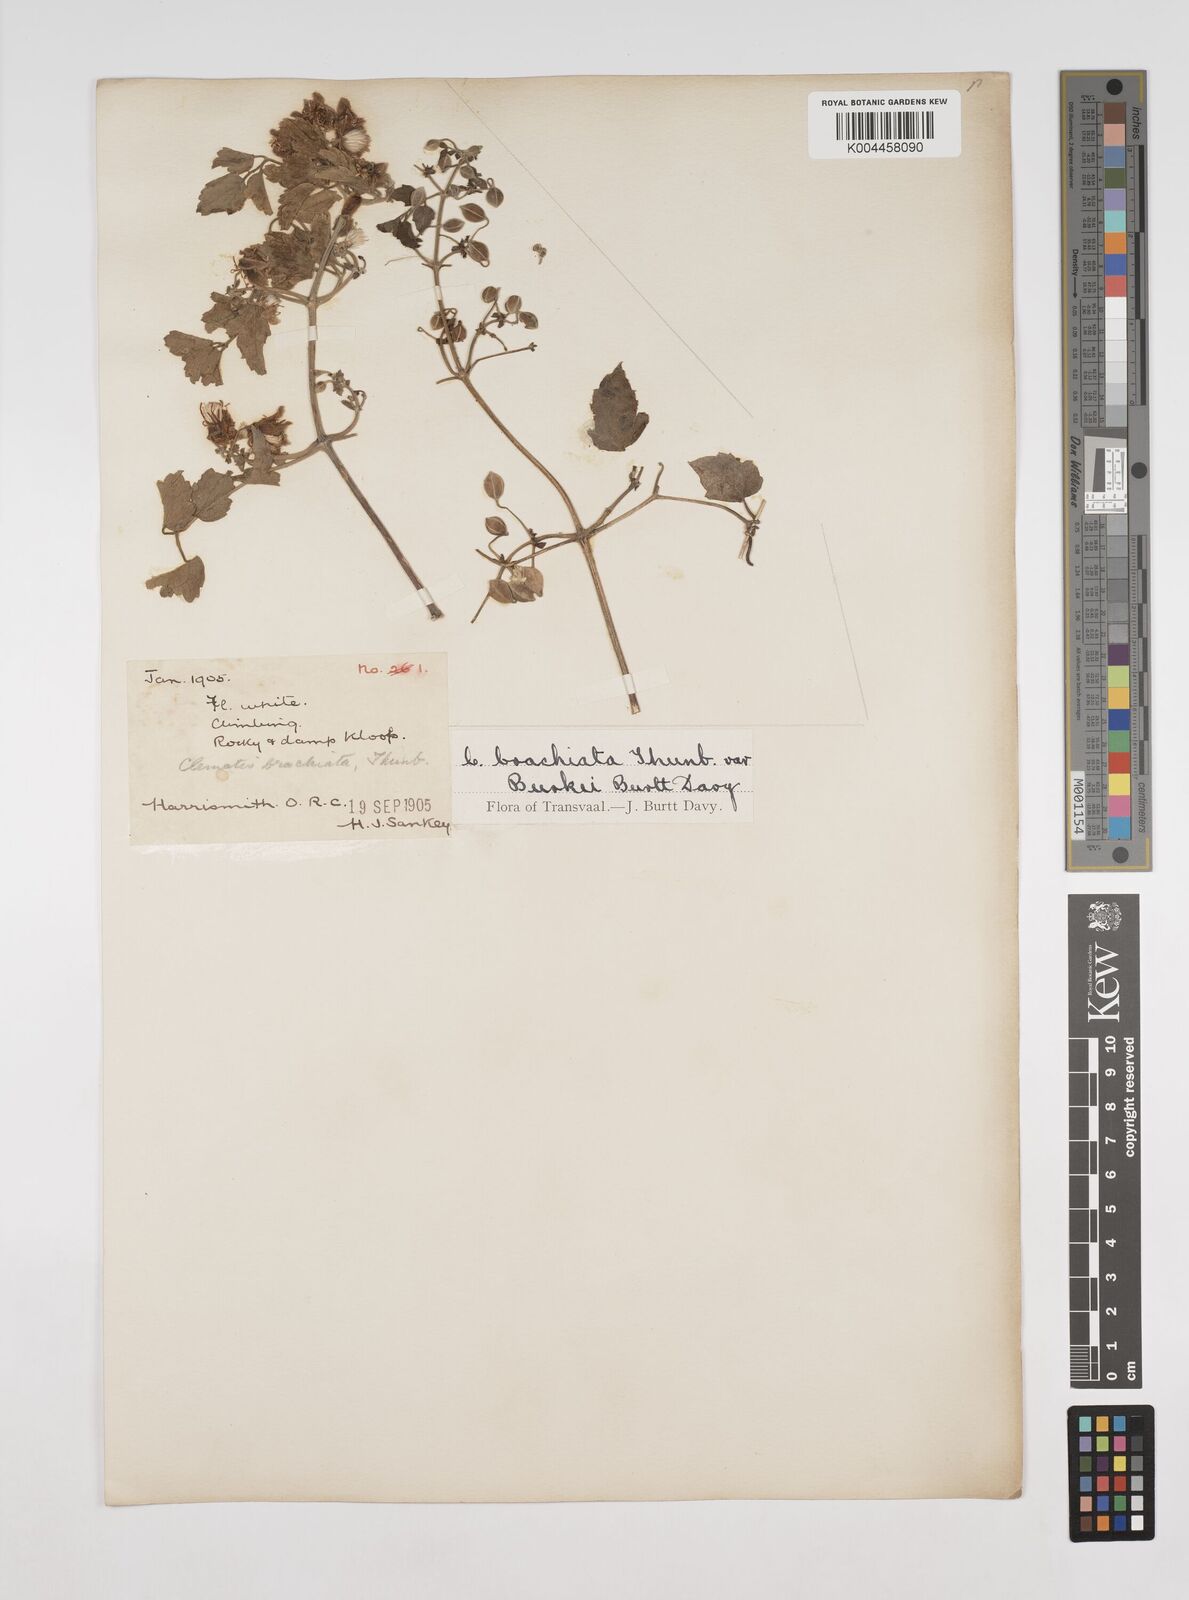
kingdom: Plantae
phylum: Tracheophyta
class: Magnoliopsida
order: Ranunculales
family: Ranunculaceae
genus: Clematis
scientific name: Clematis brachiata
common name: Traveler's-joy
